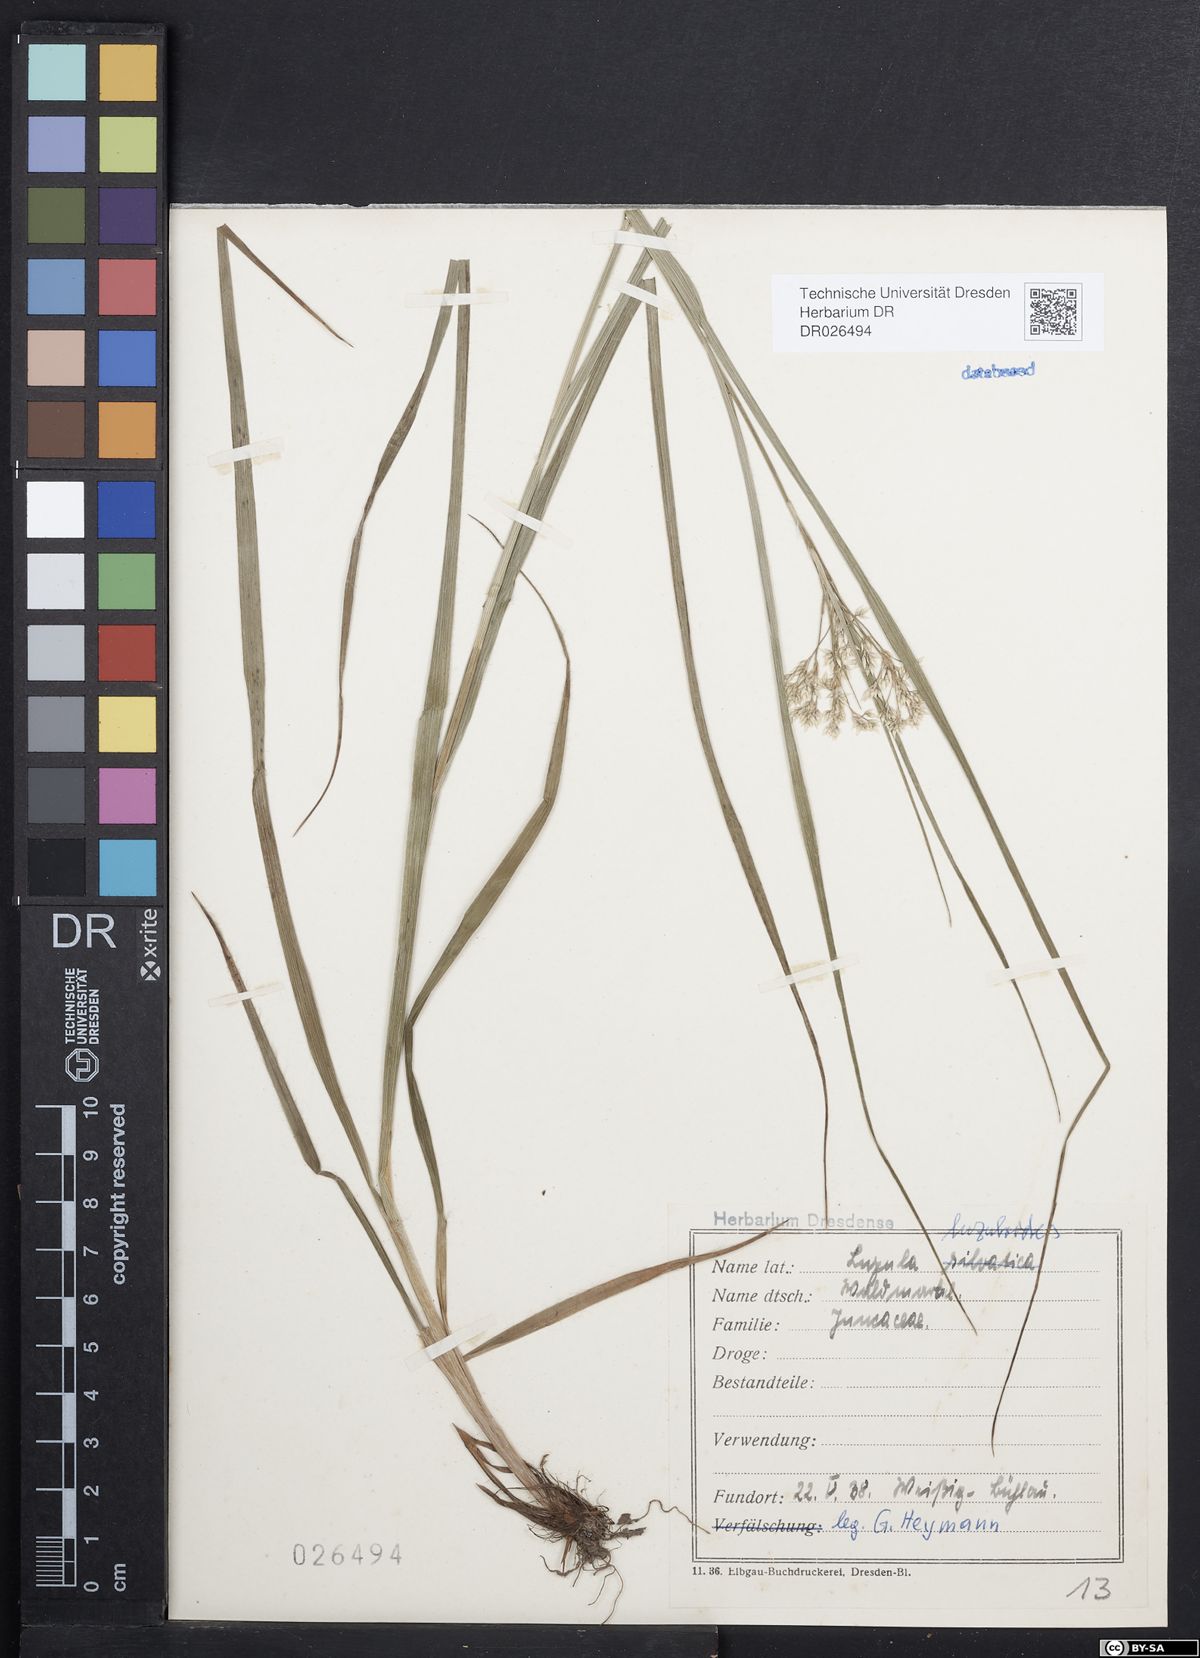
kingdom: Plantae
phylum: Tracheophyta
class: Liliopsida
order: Poales
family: Juncaceae
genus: Luzula
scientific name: Luzula luzuloides
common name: White wood-rush
